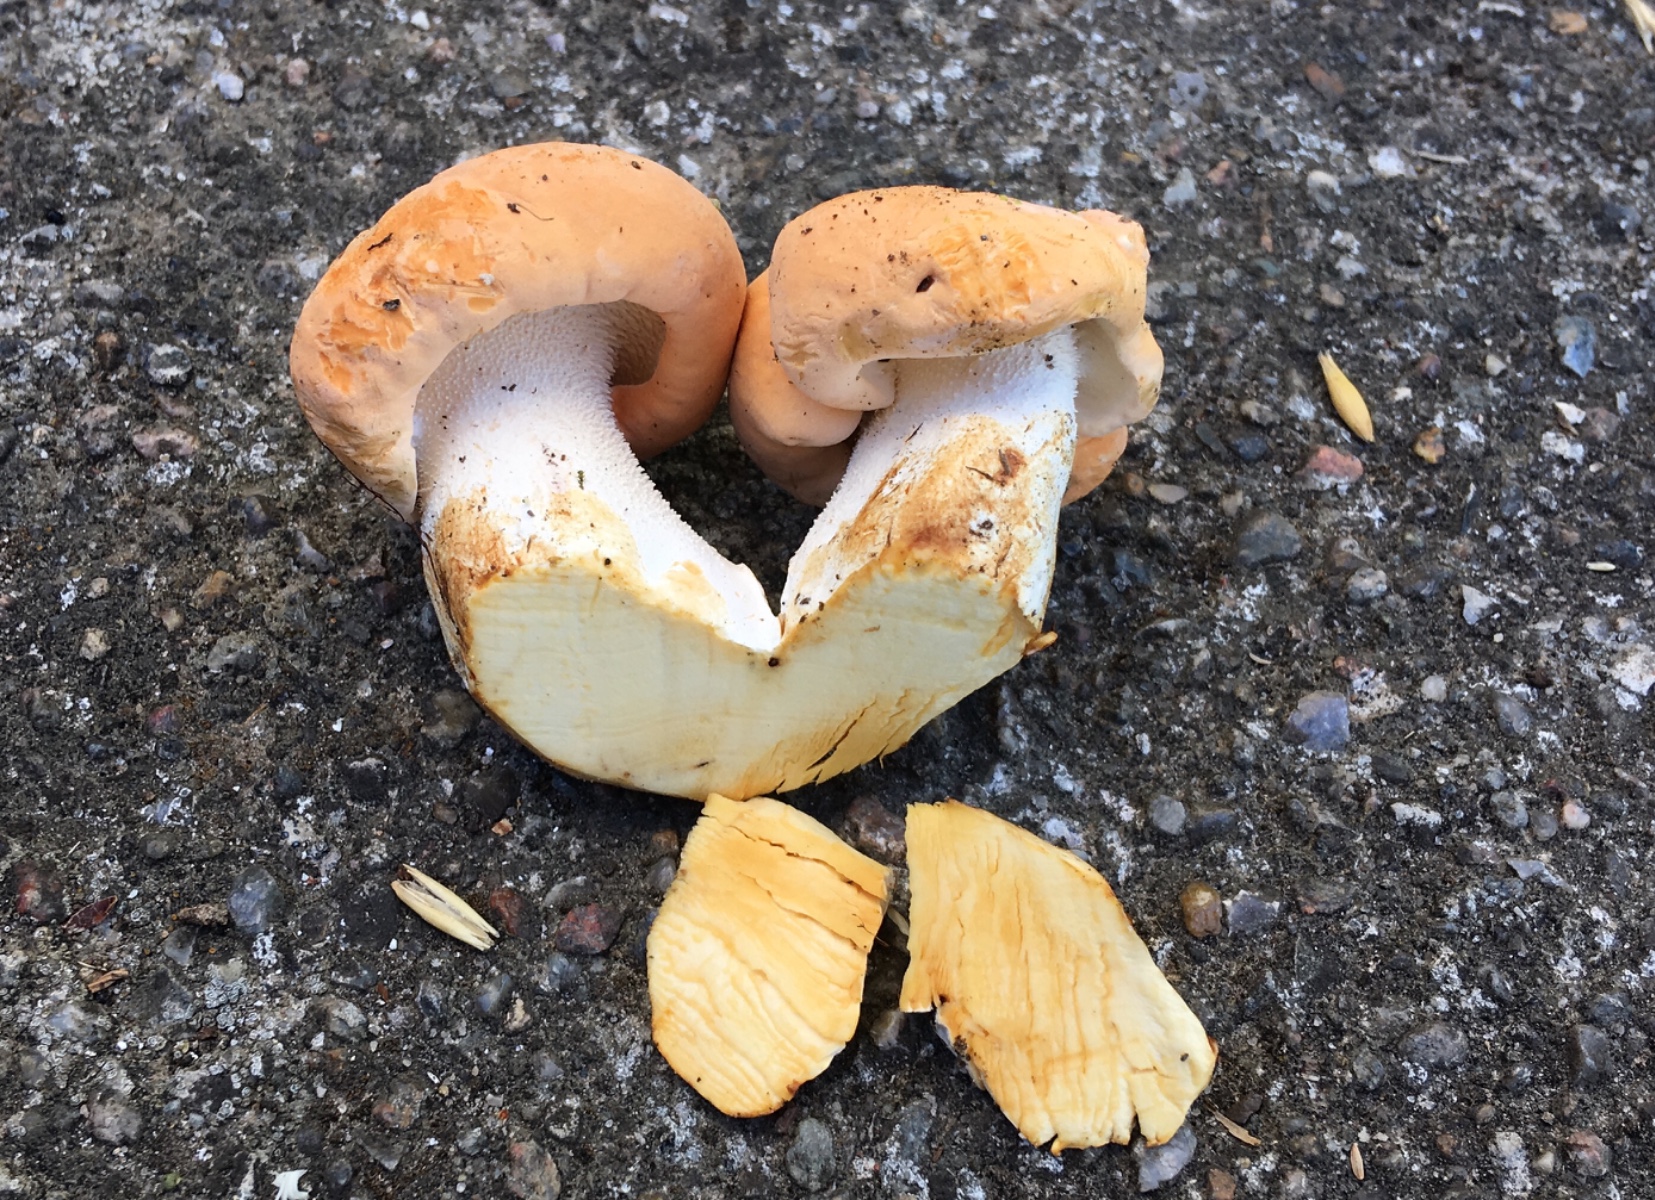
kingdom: Fungi
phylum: Basidiomycota
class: Agaricomycetes
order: Cantharellales
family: Hydnaceae
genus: Hydnum
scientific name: Hydnum slovenicum
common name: slovensk pigsvamp
